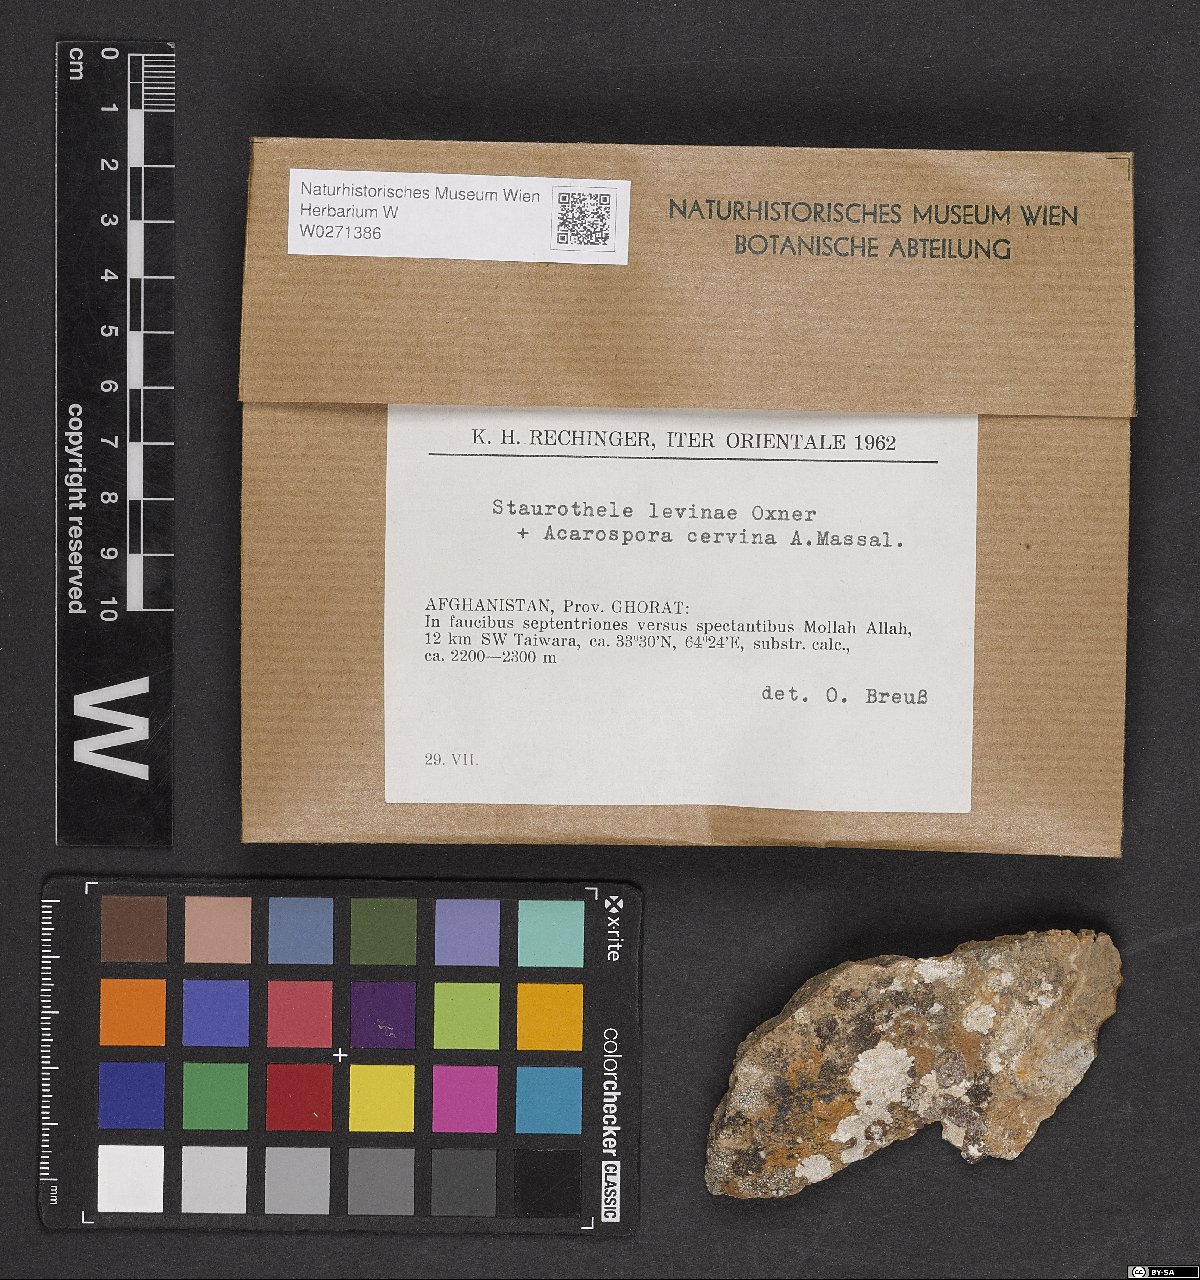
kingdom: Fungi
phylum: Ascomycota
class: Eurotiomycetes
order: Verrucariales
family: Verrucariaceae
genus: Staurothele
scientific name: Staurothele levinae
